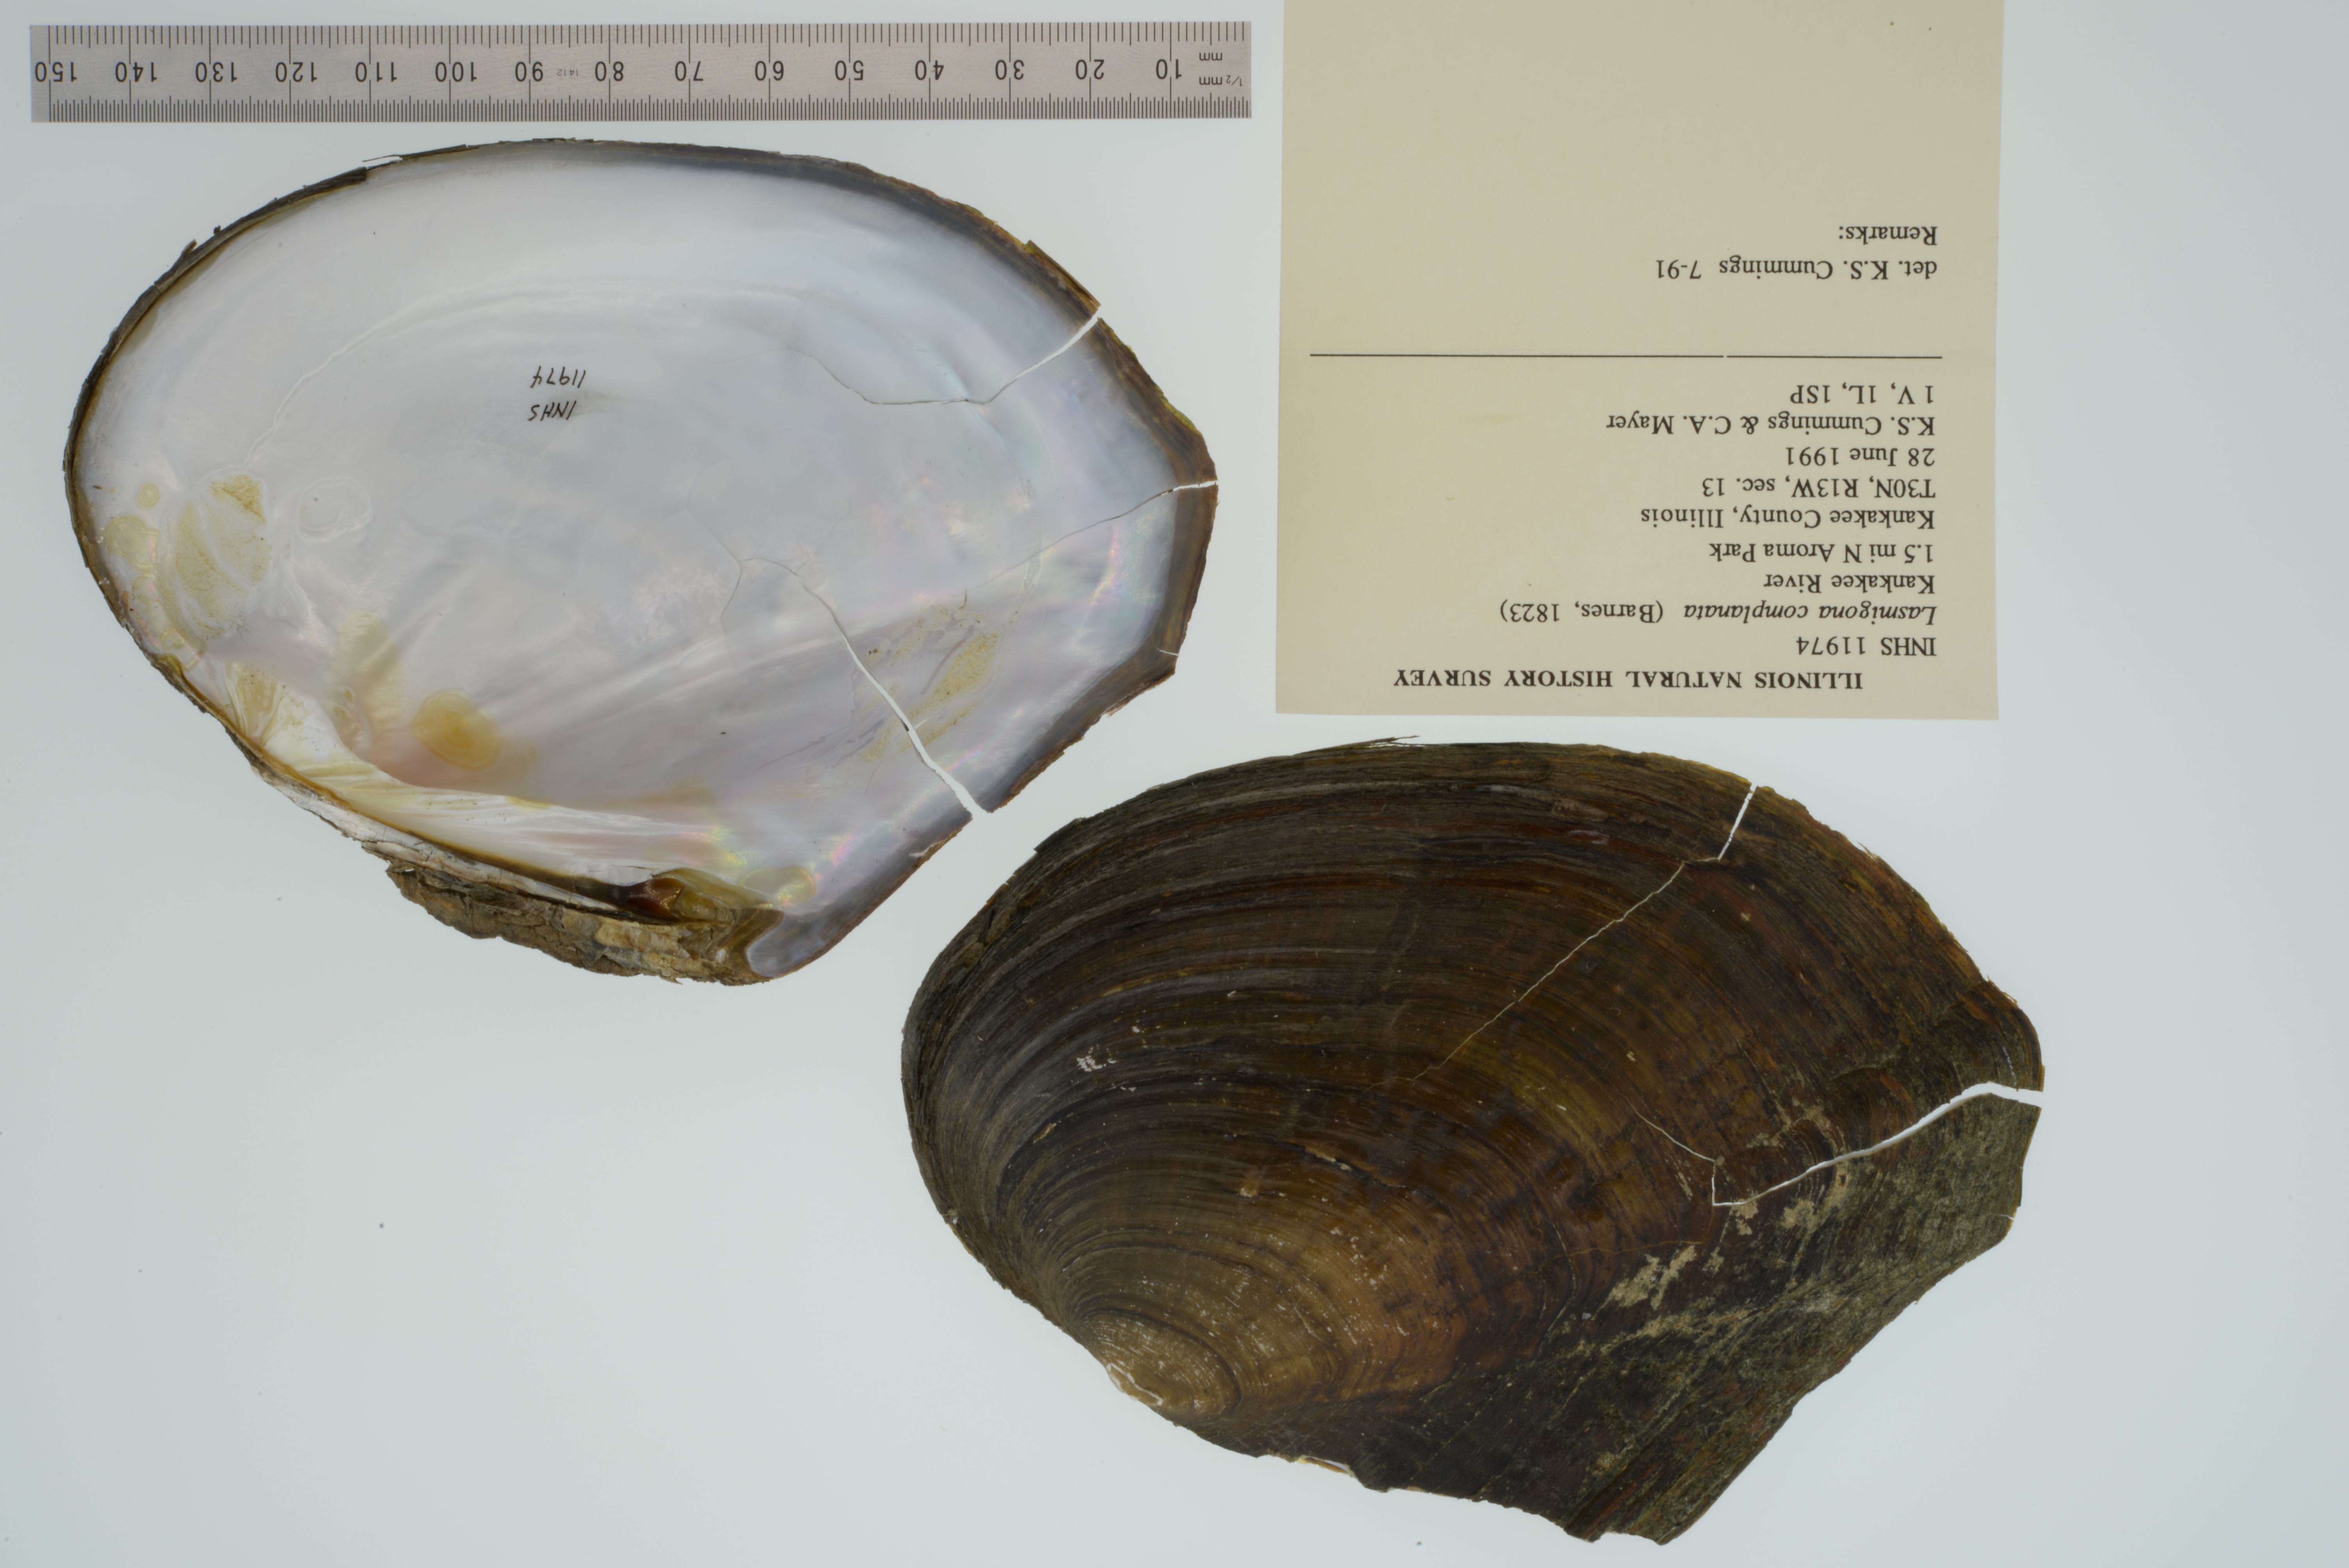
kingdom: Animalia
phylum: Mollusca
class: Bivalvia
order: Unionida
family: Unionidae
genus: Lasmigona
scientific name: Lasmigona complanata
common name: White heelsplitter
